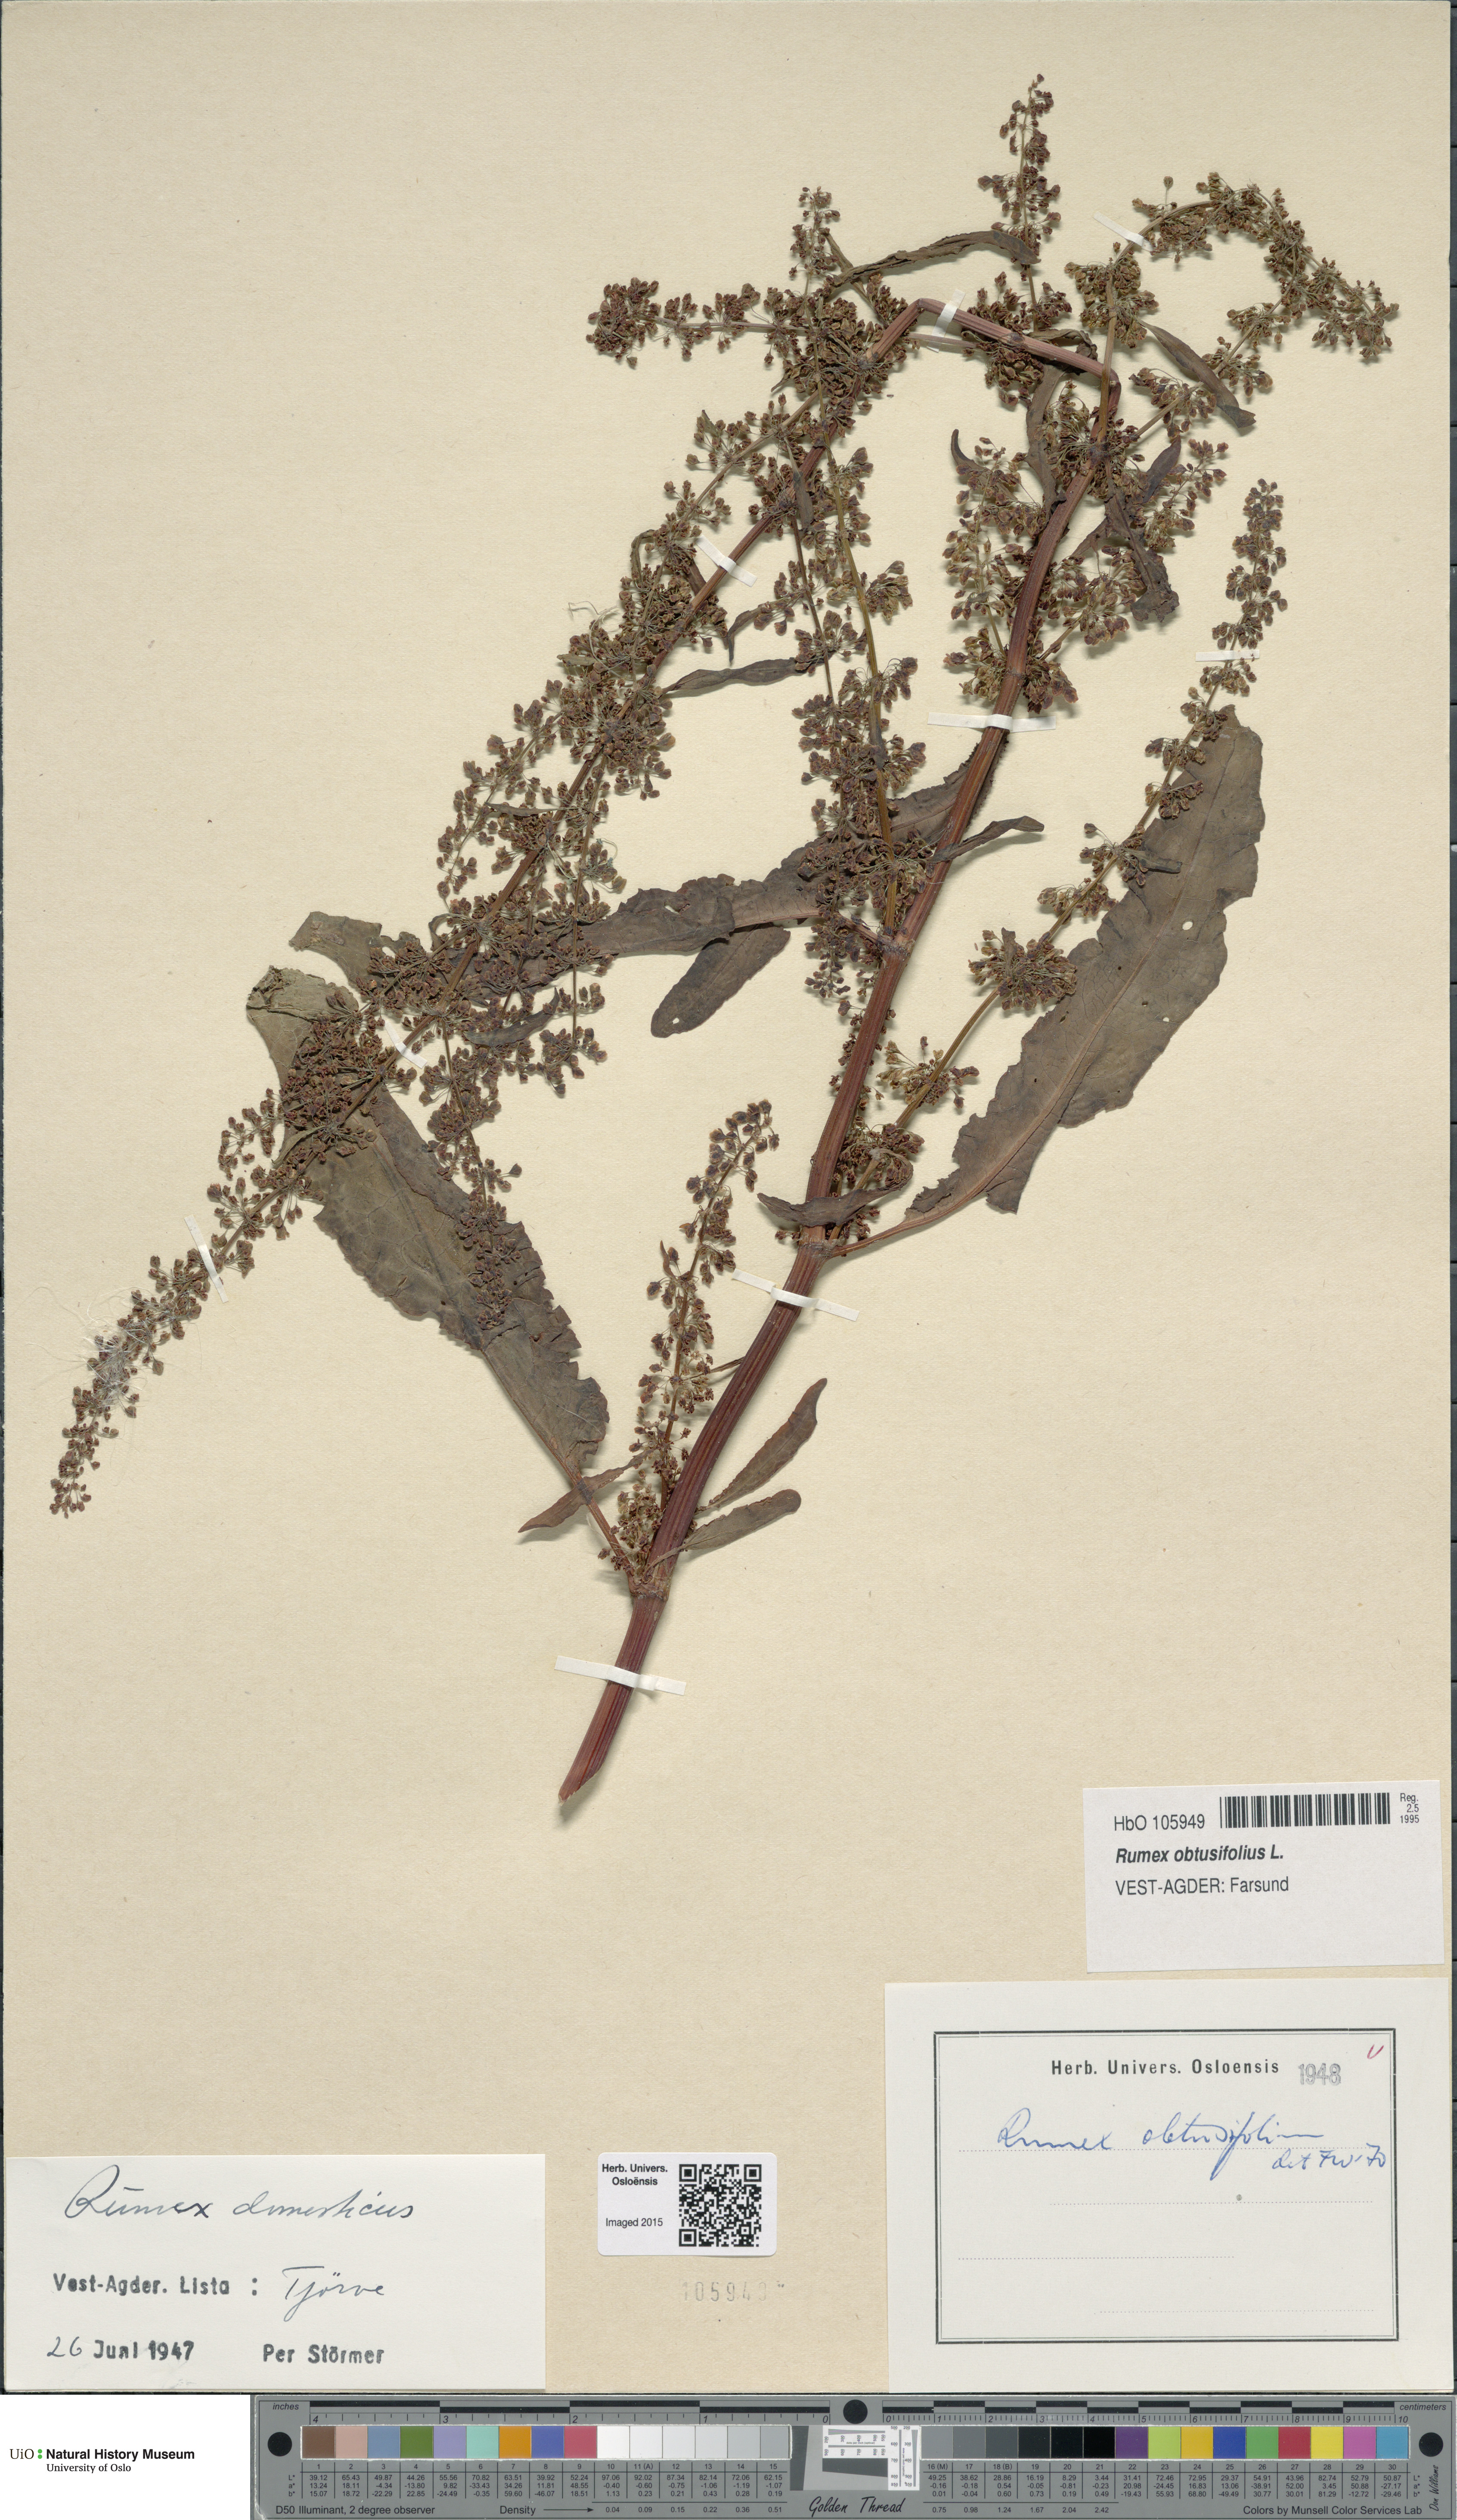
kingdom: Plantae
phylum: Tracheophyta
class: Magnoliopsida
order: Caryophyllales
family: Polygonaceae
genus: Rumex
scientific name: Rumex obtusifolius
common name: Bitter dock
